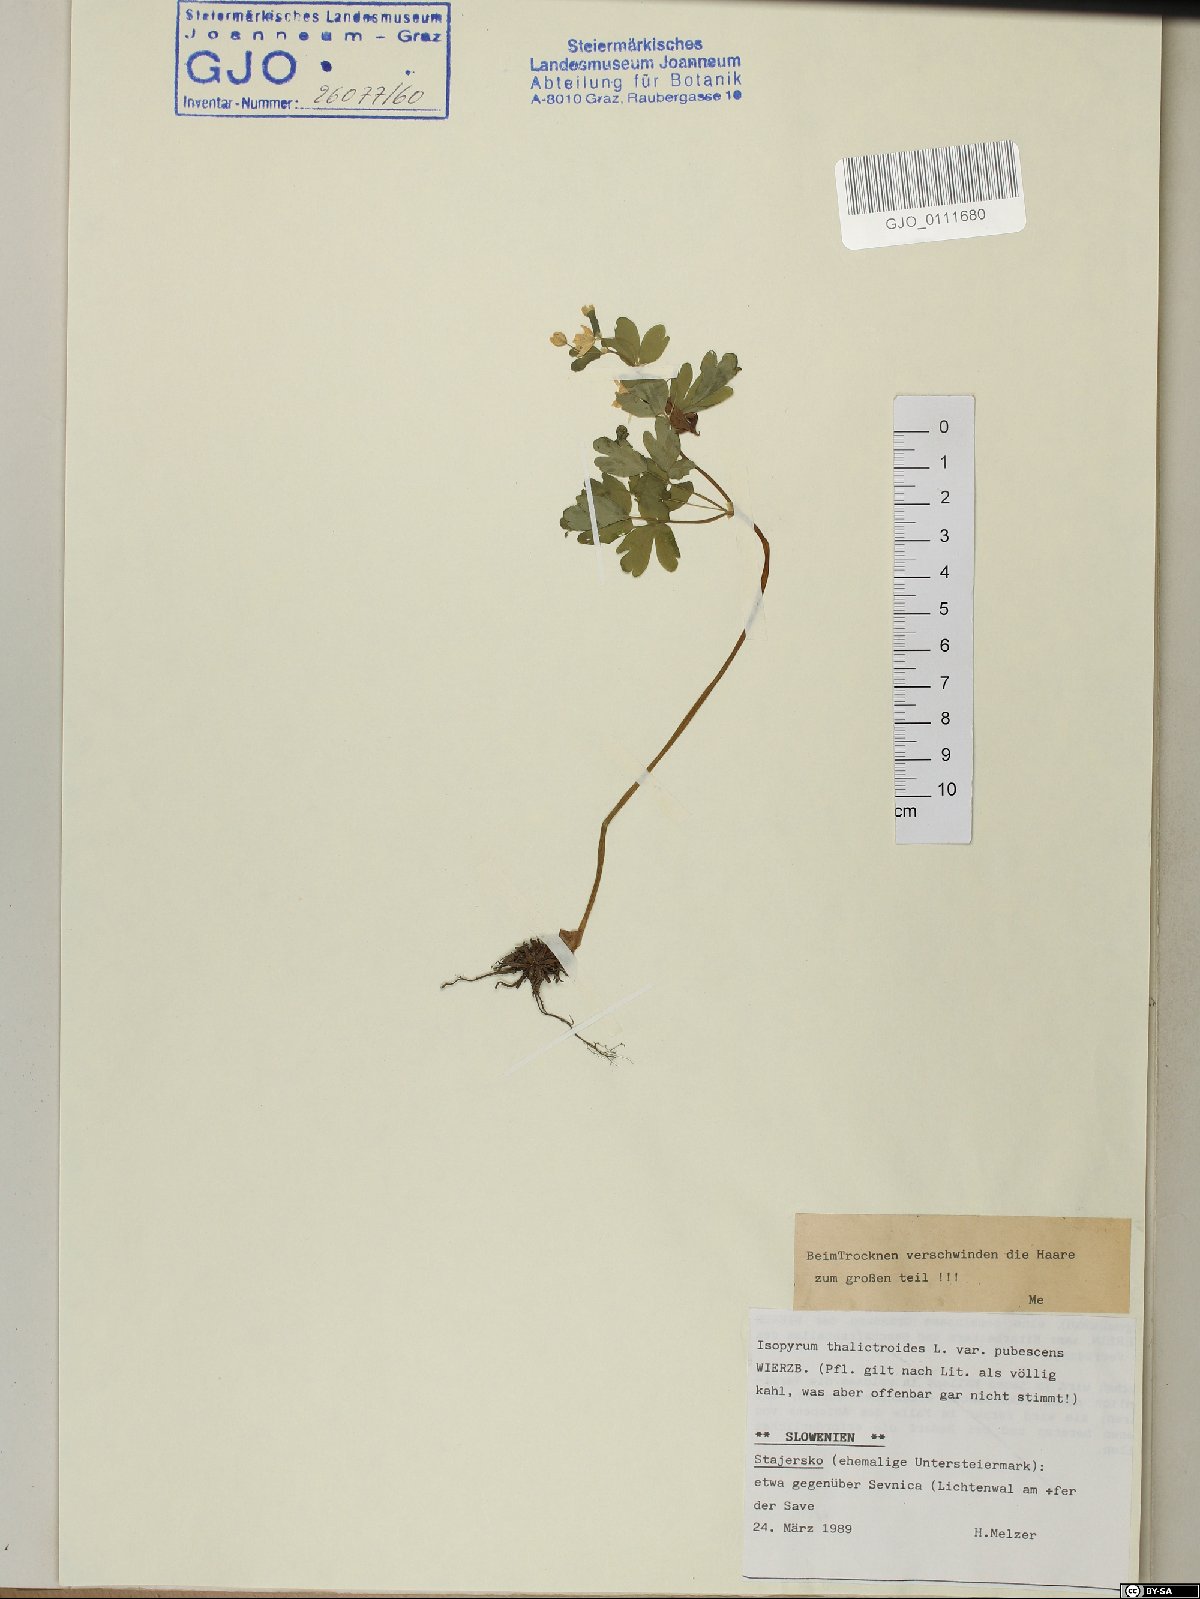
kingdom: Plantae
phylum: Tracheophyta
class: Magnoliopsida
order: Ranunculales
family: Ranunculaceae
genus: Isopyrum
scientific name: Isopyrum thalictroides
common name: Isopyrum
